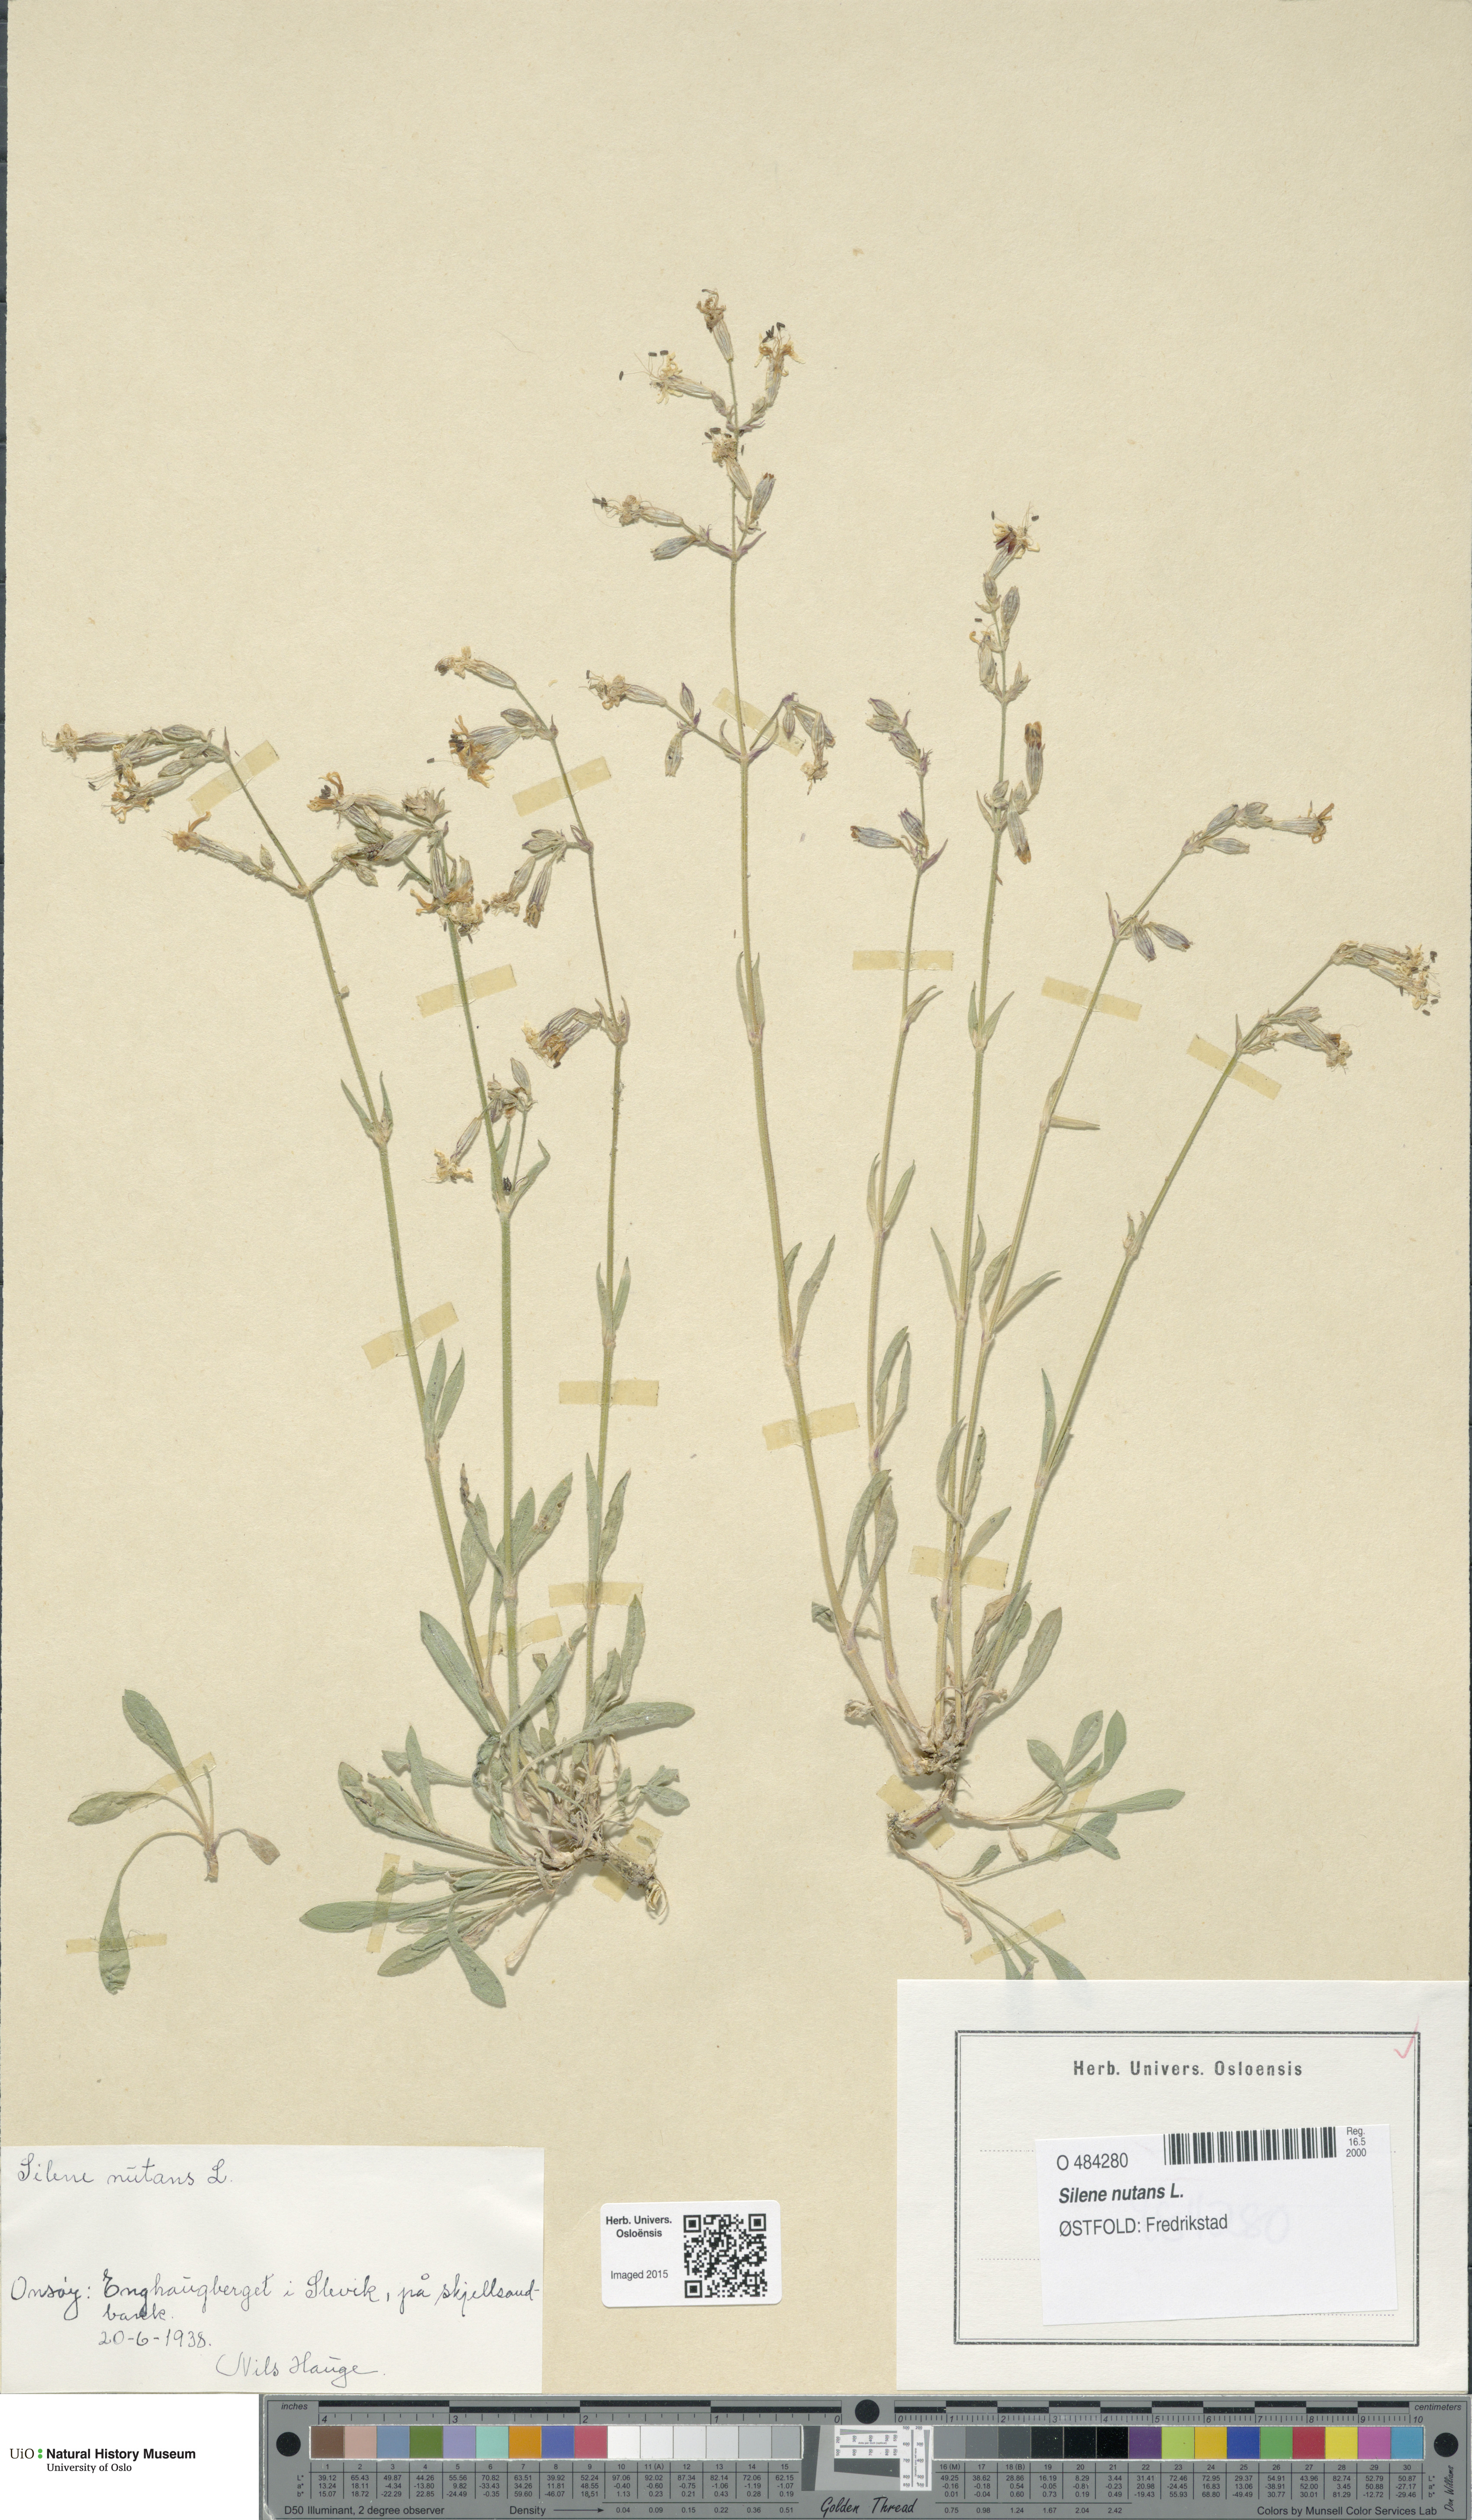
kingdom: Plantae
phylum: Tracheophyta
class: Magnoliopsida
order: Caryophyllales
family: Caryophyllaceae
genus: Silene
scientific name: Silene nutans
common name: Nottingham catchfly
